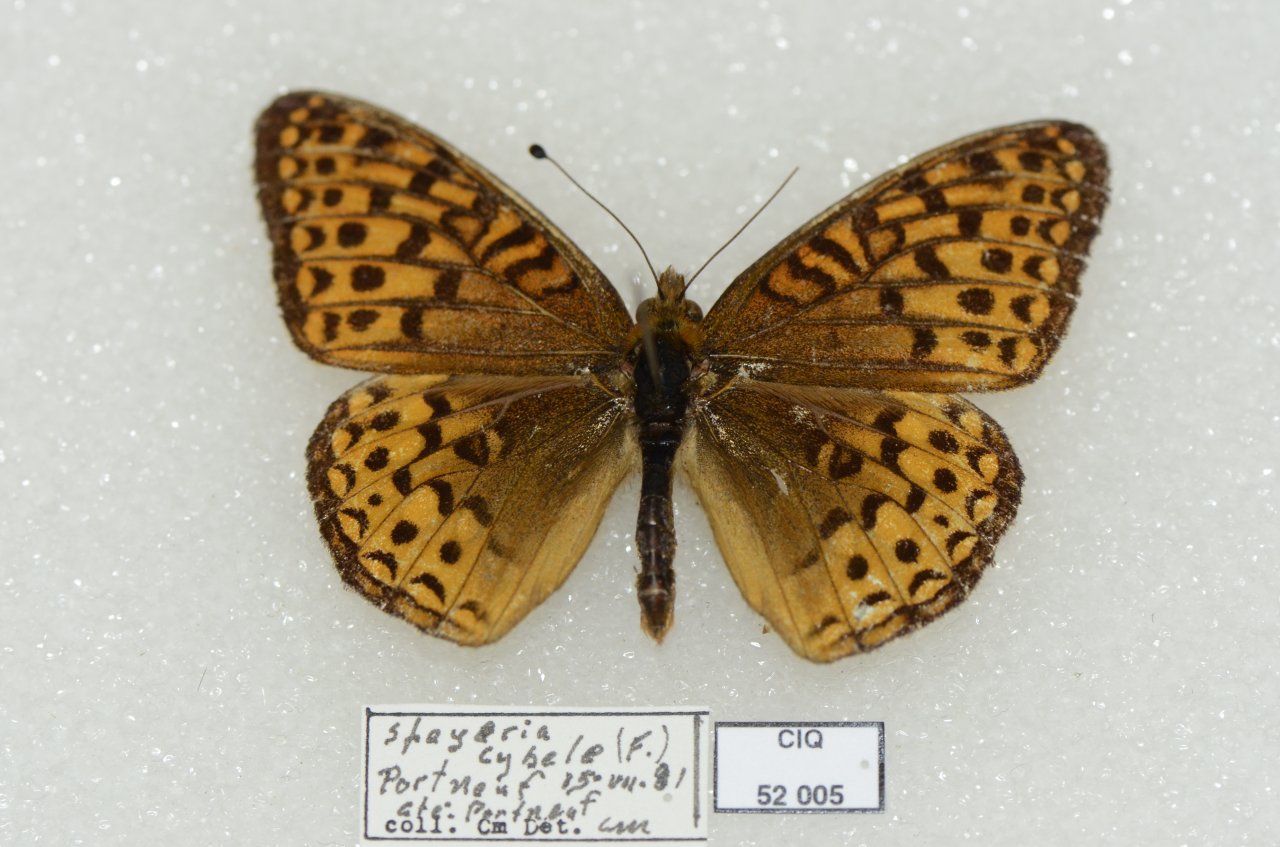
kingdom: Animalia
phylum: Arthropoda
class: Insecta
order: Lepidoptera
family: Nymphalidae
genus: Speyeria
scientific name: Speyeria cybele
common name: Great Spangled Fritillary
